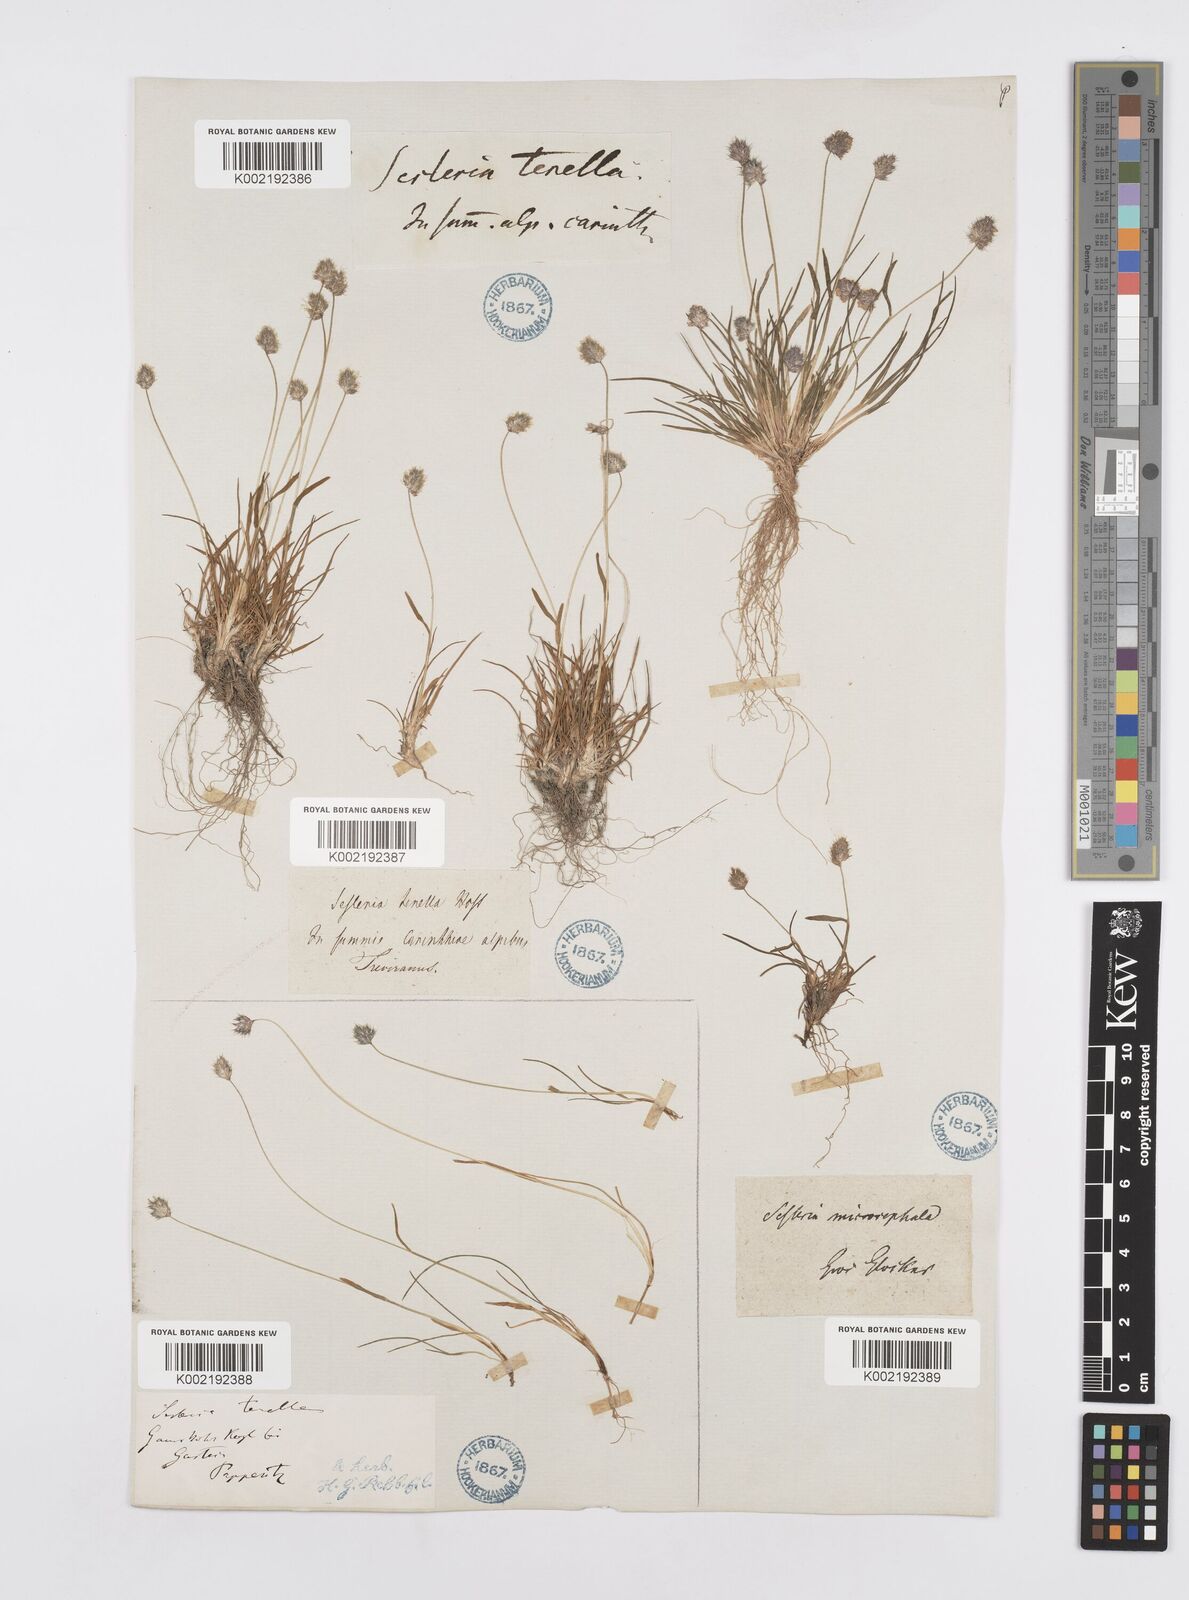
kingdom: Plantae
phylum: Tracheophyta
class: Liliopsida
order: Poales
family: Poaceae
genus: Psilathera
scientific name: Psilathera ovata
